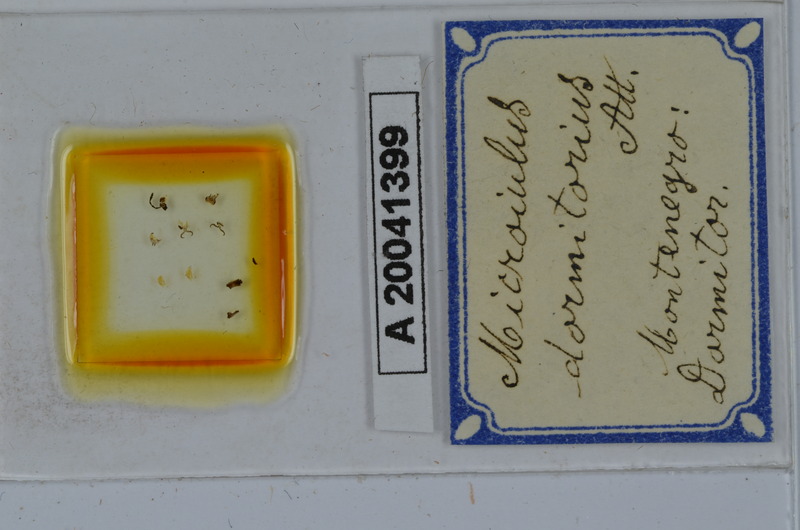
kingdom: Animalia
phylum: Arthropoda
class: Diplopoda
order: Julida
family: Julidae
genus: Leptoiulus
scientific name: Leptoiulus durmitorius
